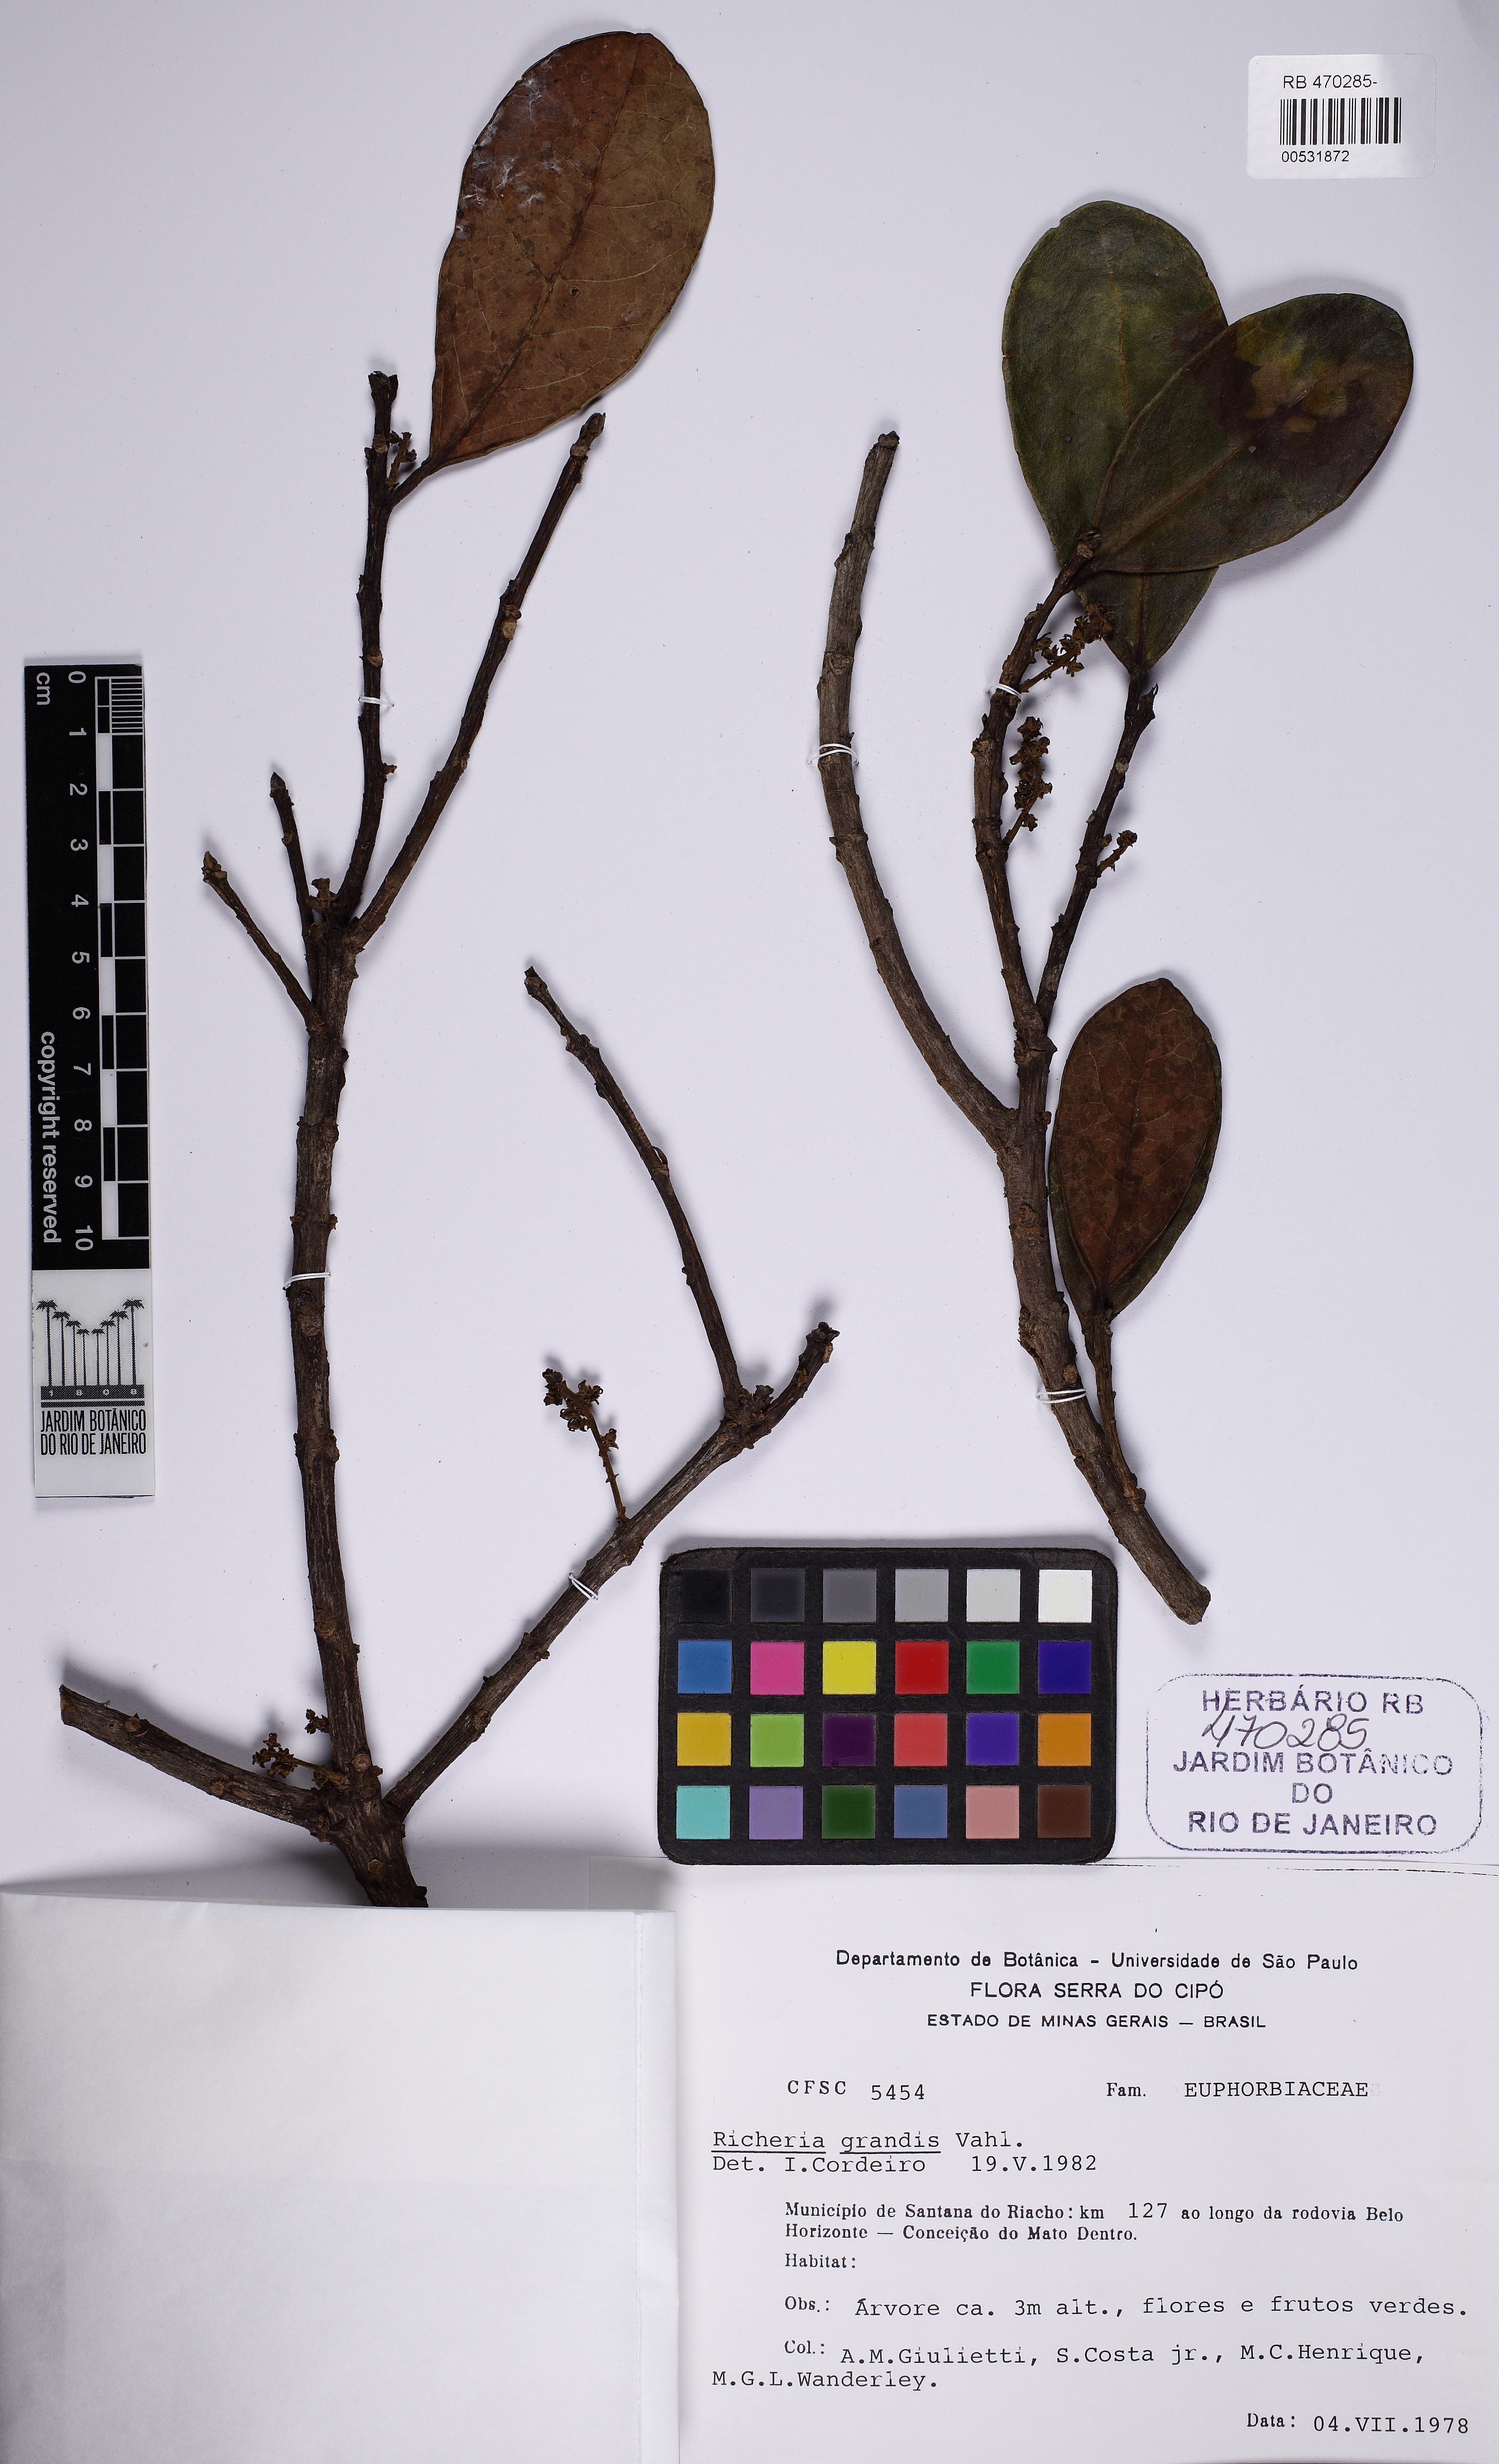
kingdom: Plantae
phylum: Tracheophyta
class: Magnoliopsida
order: Malpighiales
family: Phyllanthaceae
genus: Richeria
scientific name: Richeria grandis
